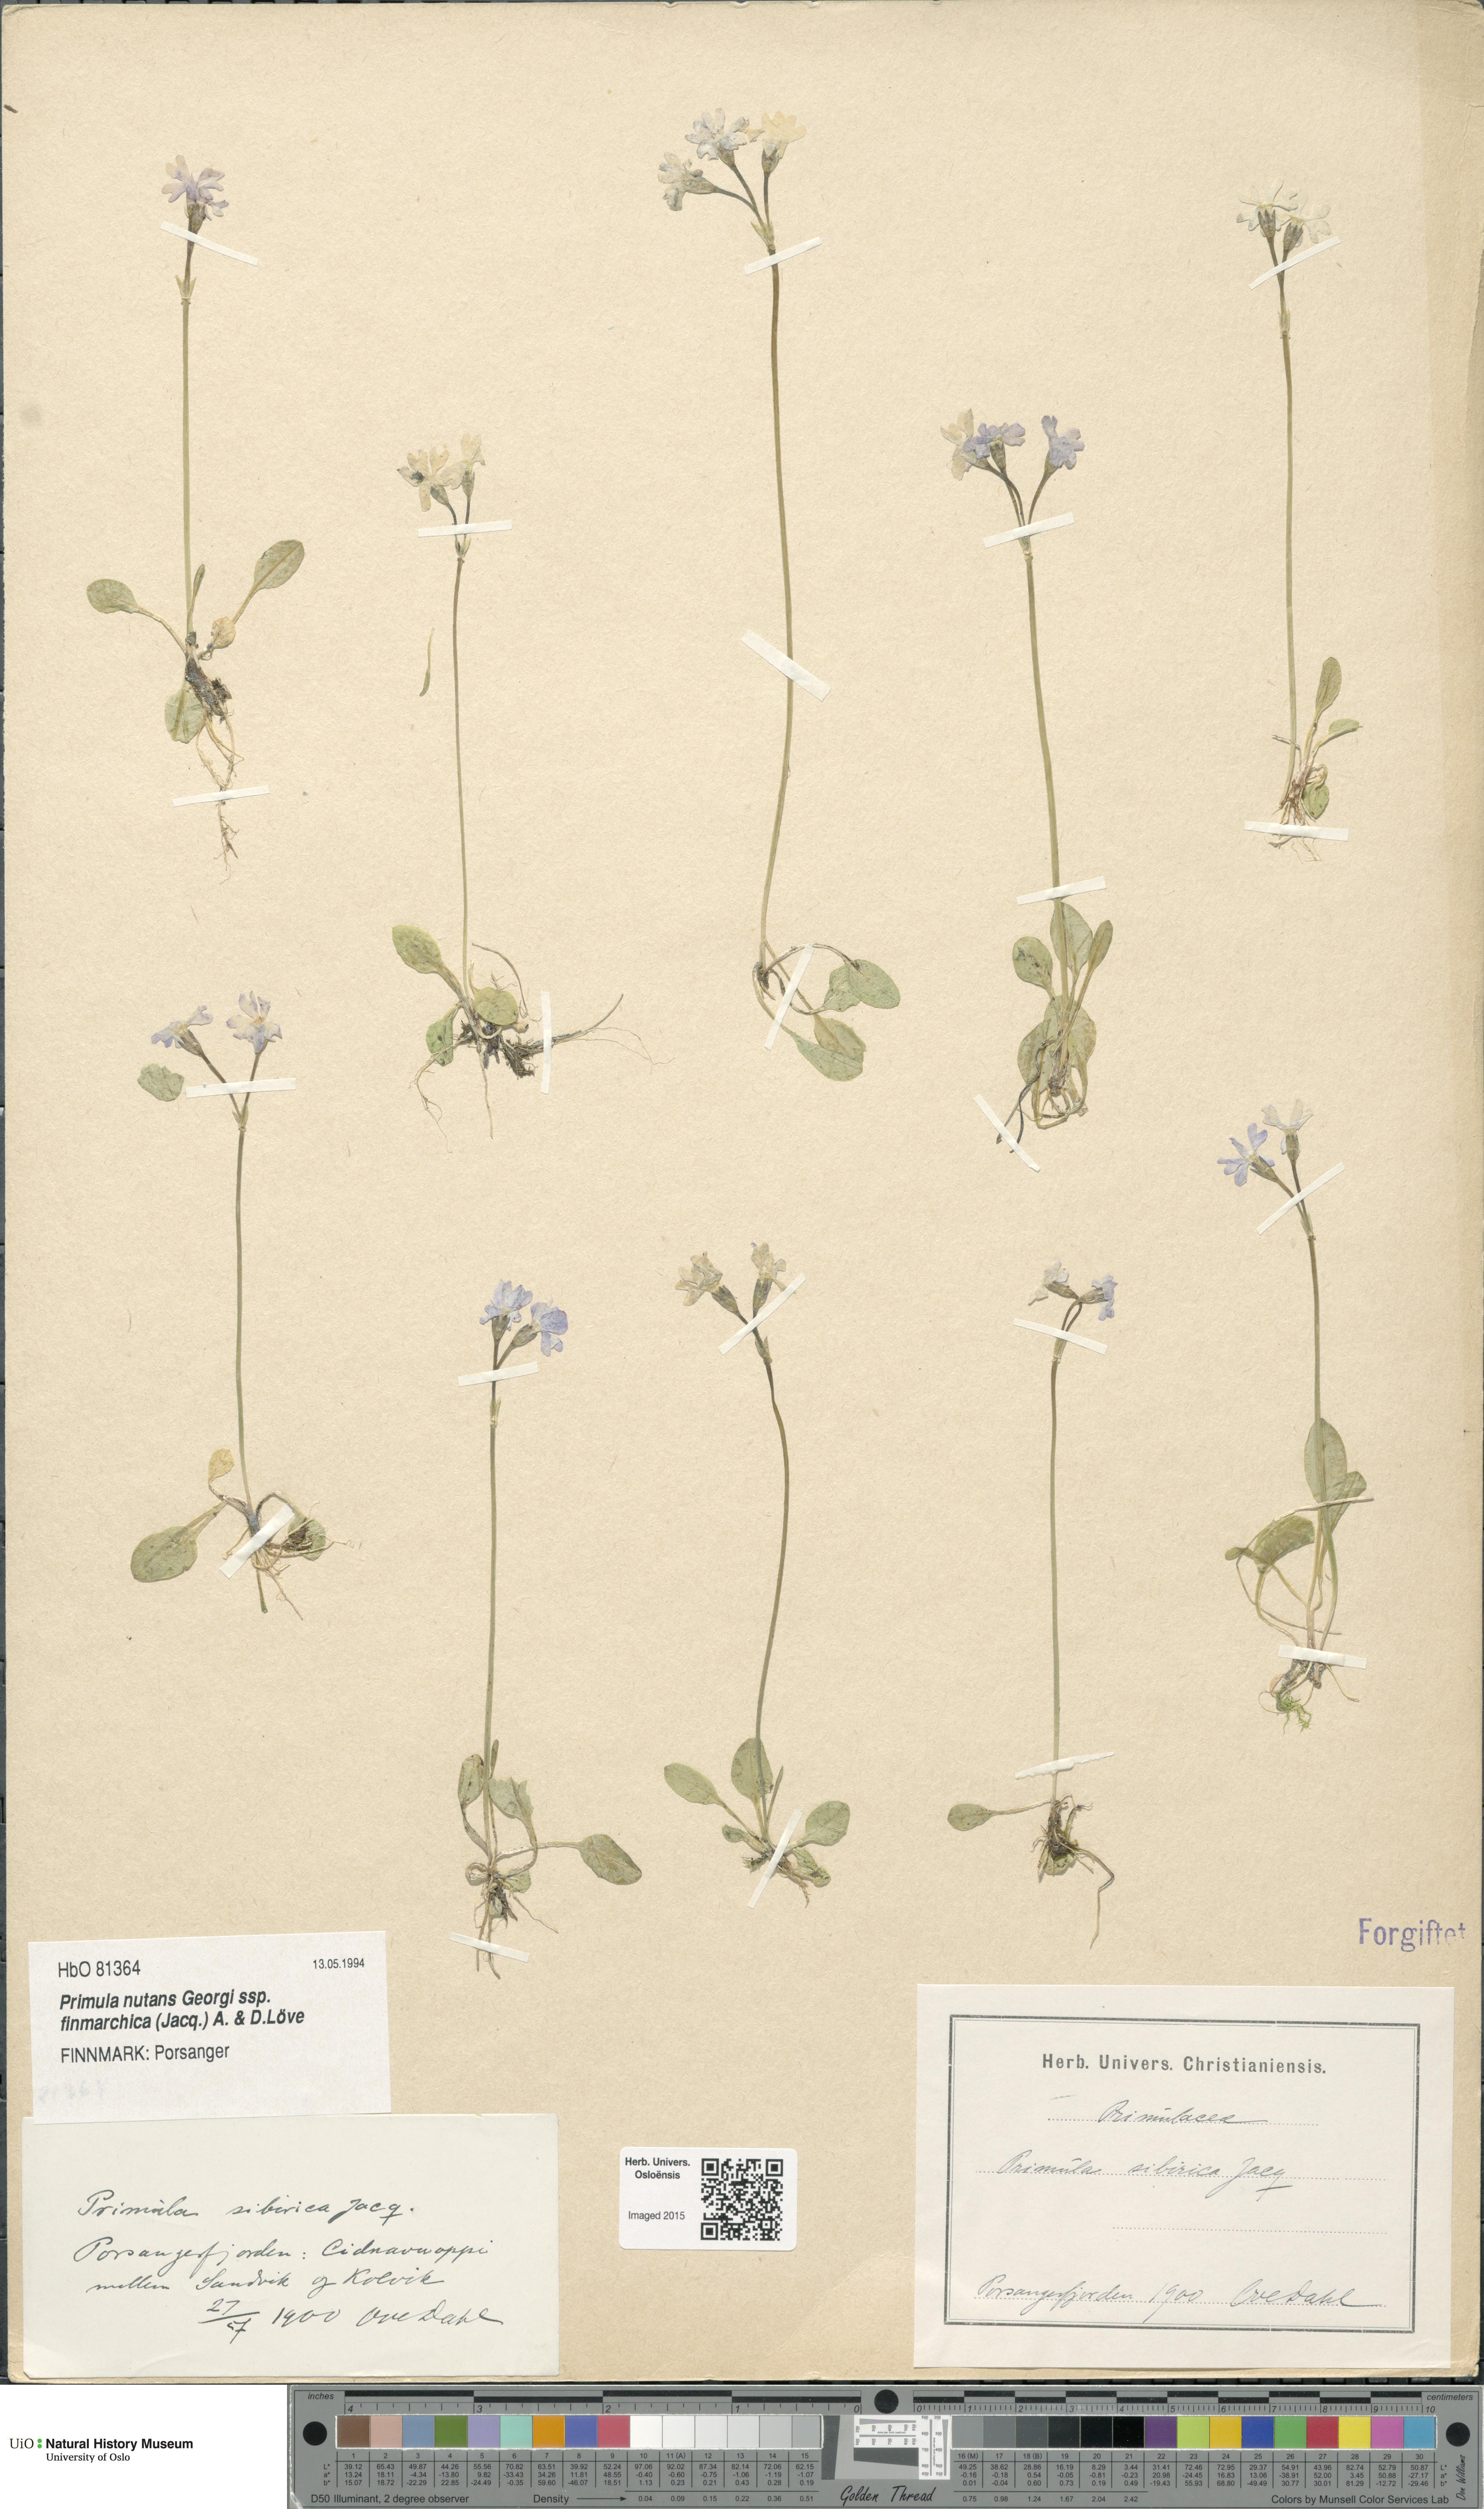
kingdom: Plantae
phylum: Tracheophyta
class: Magnoliopsida
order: Ericales
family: Primulaceae
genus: Primula
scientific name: Primula nutans
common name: Siberian primrose
